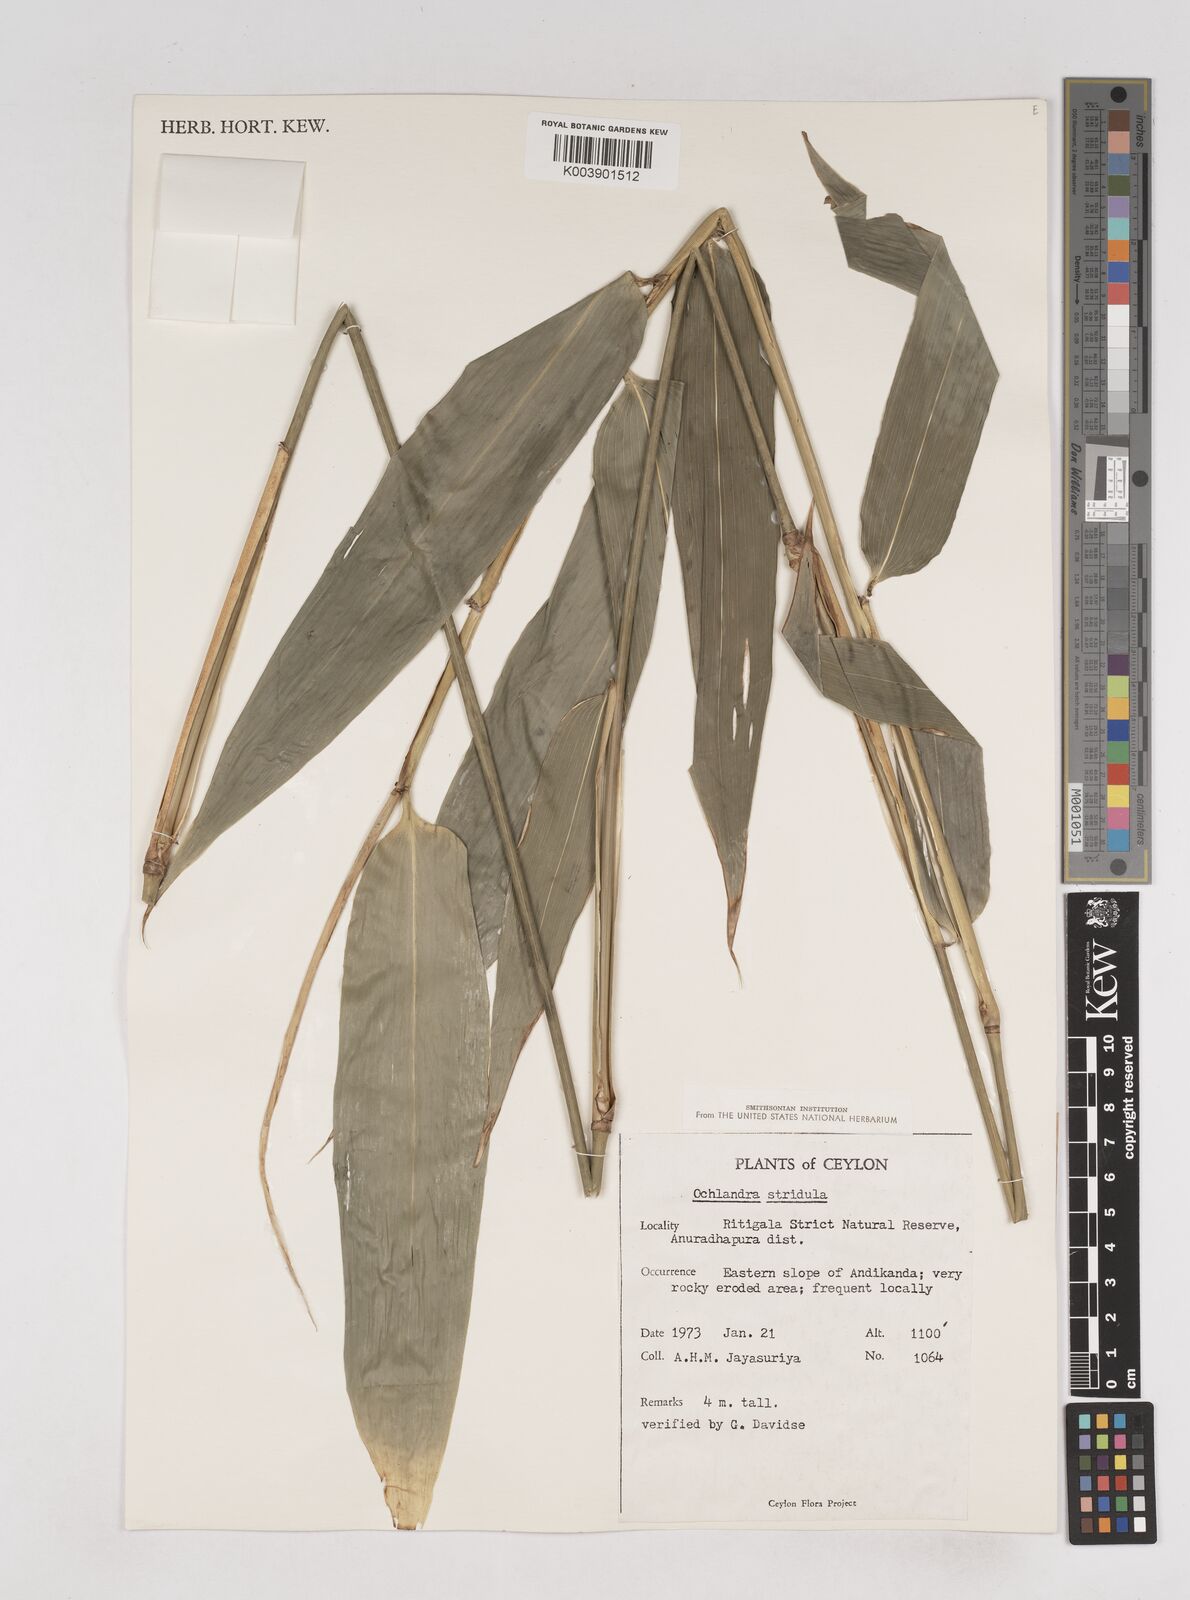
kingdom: Plantae
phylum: Tracheophyta
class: Liliopsida
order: Poales
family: Poaceae
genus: Ochlandra
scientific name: Ochlandra stridula
